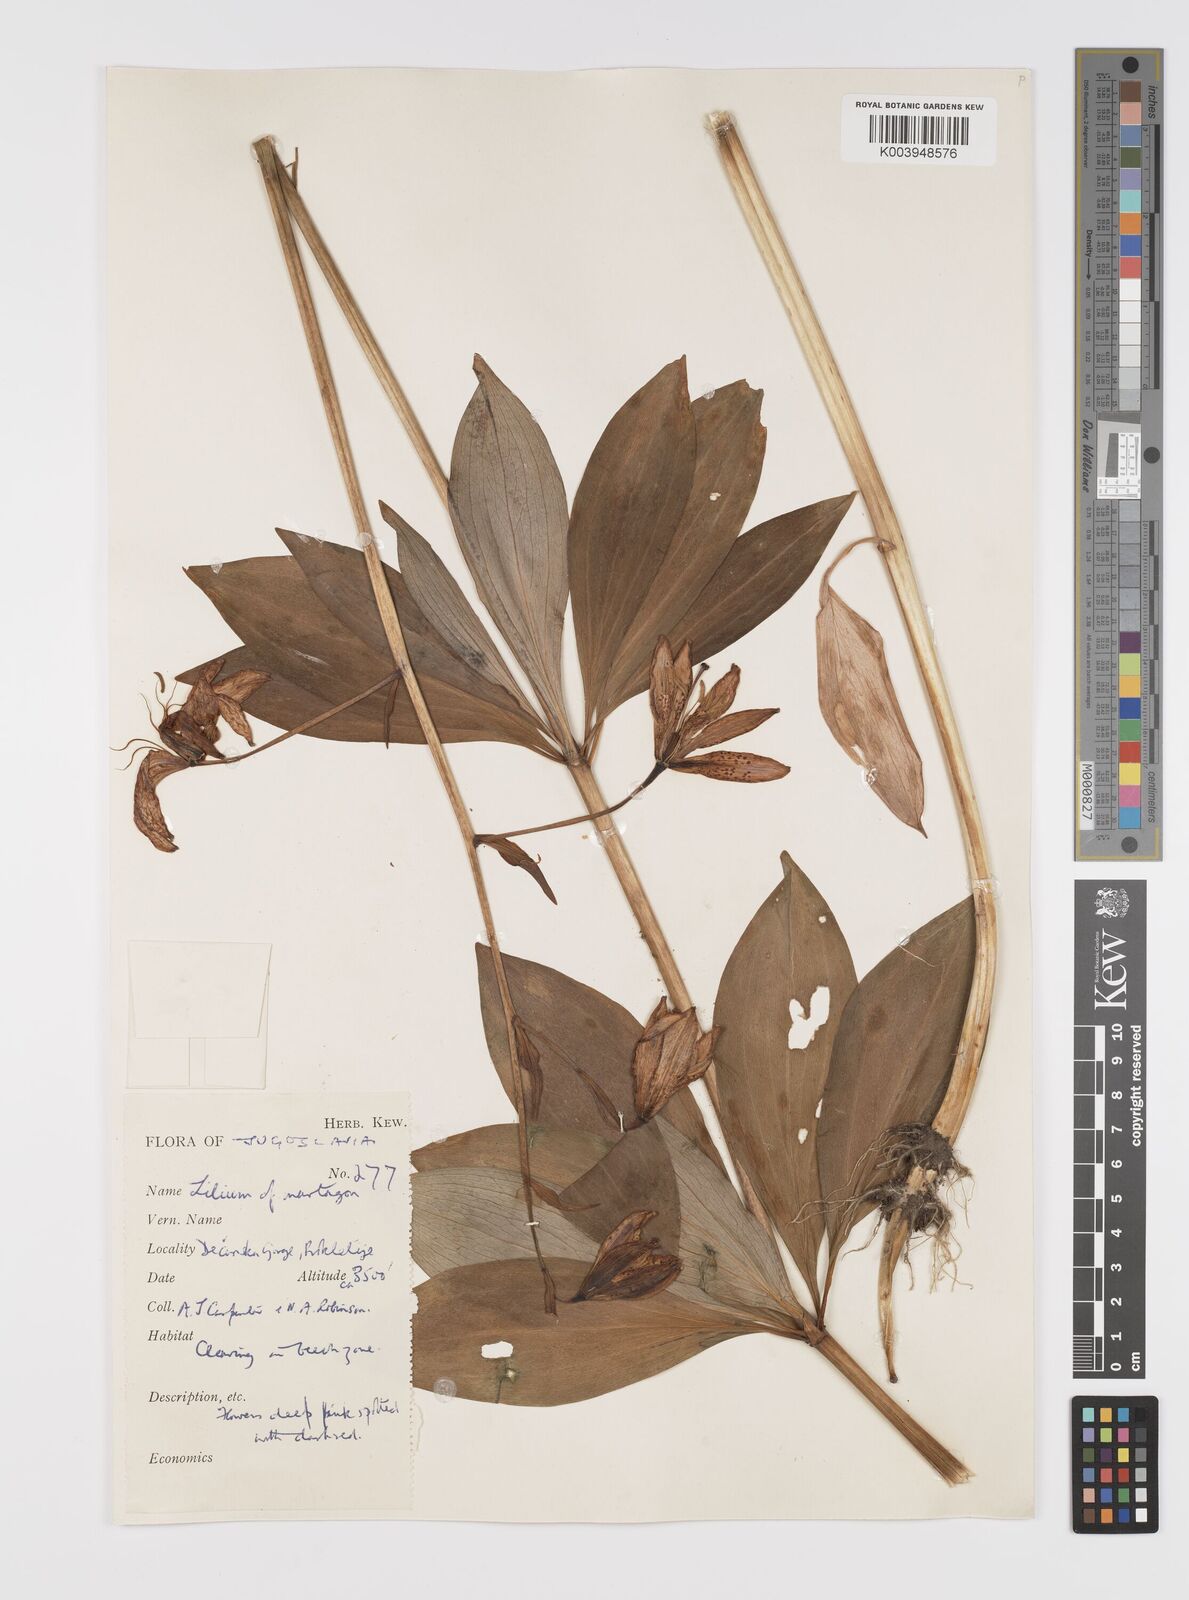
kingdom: Plantae
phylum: Tracheophyta
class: Liliopsida
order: Liliales
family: Liliaceae
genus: Lilium
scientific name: Lilium martagon
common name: Martagon lily
